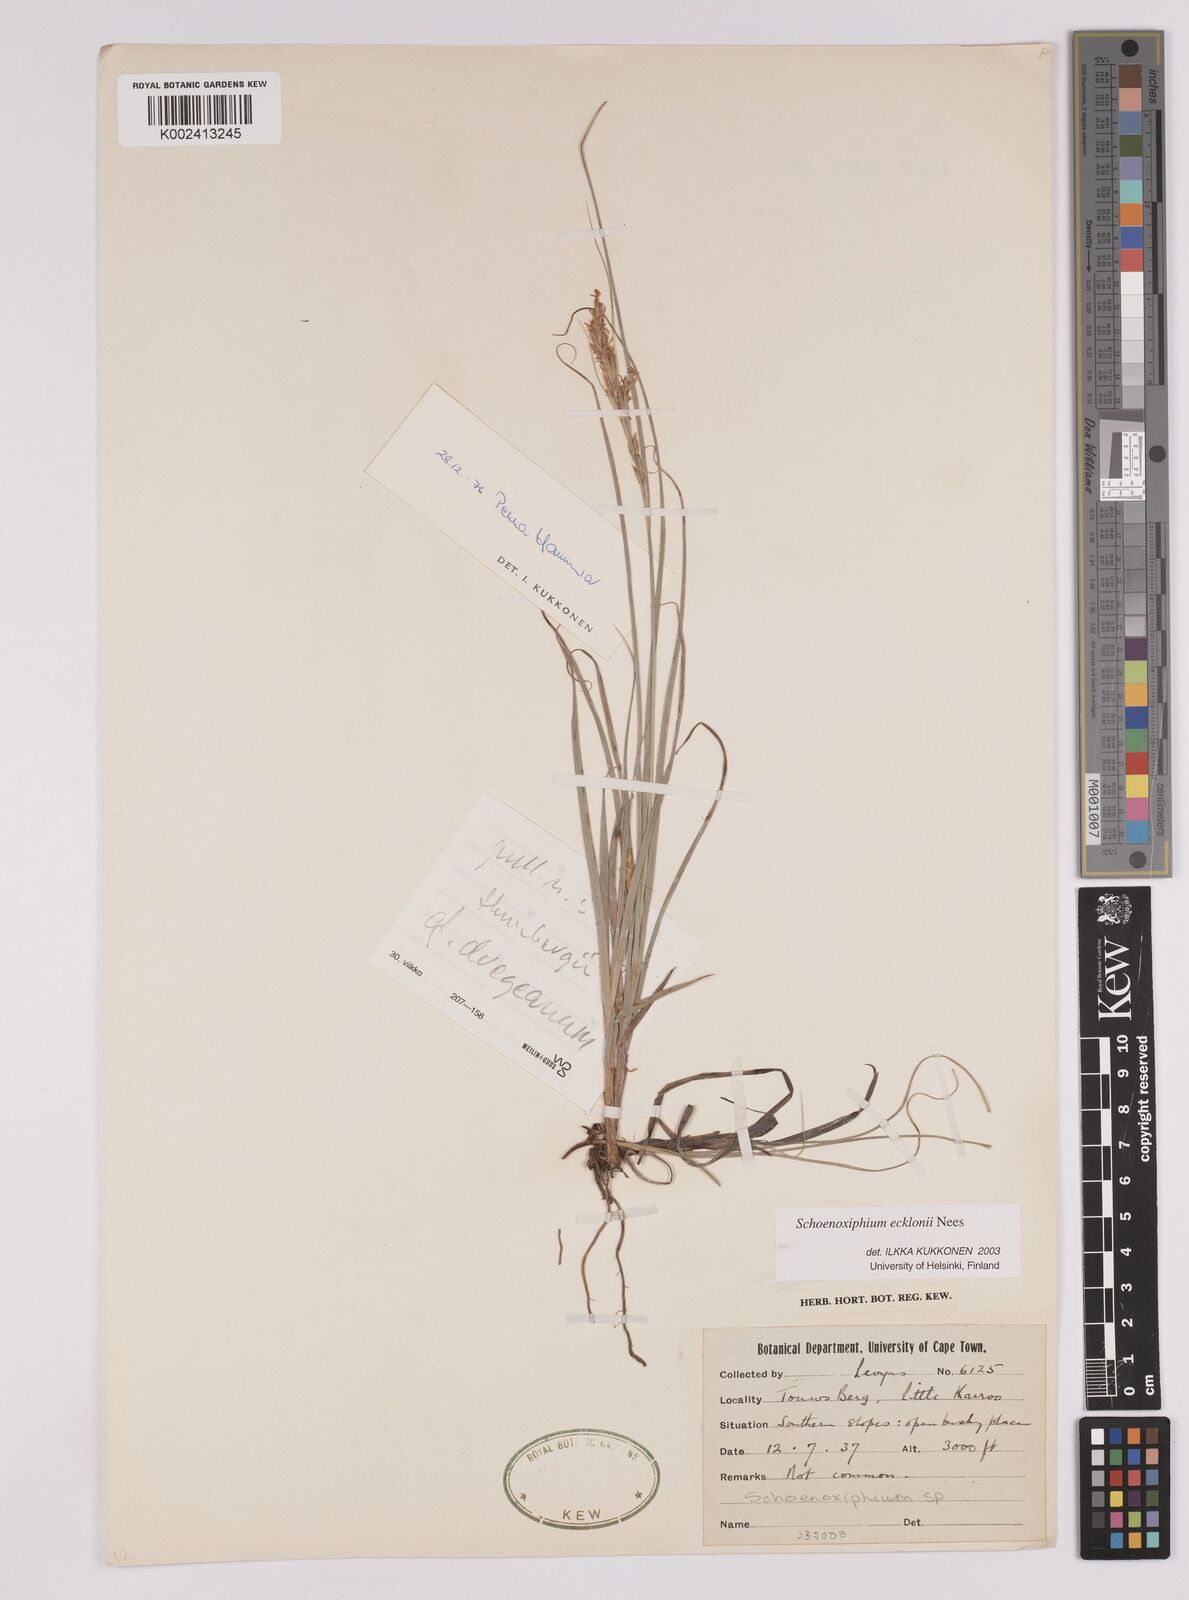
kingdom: Plantae
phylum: Tracheophyta
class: Liliopsida
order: Poales
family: Cyperaceae
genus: Carex
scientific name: Carex capensis
